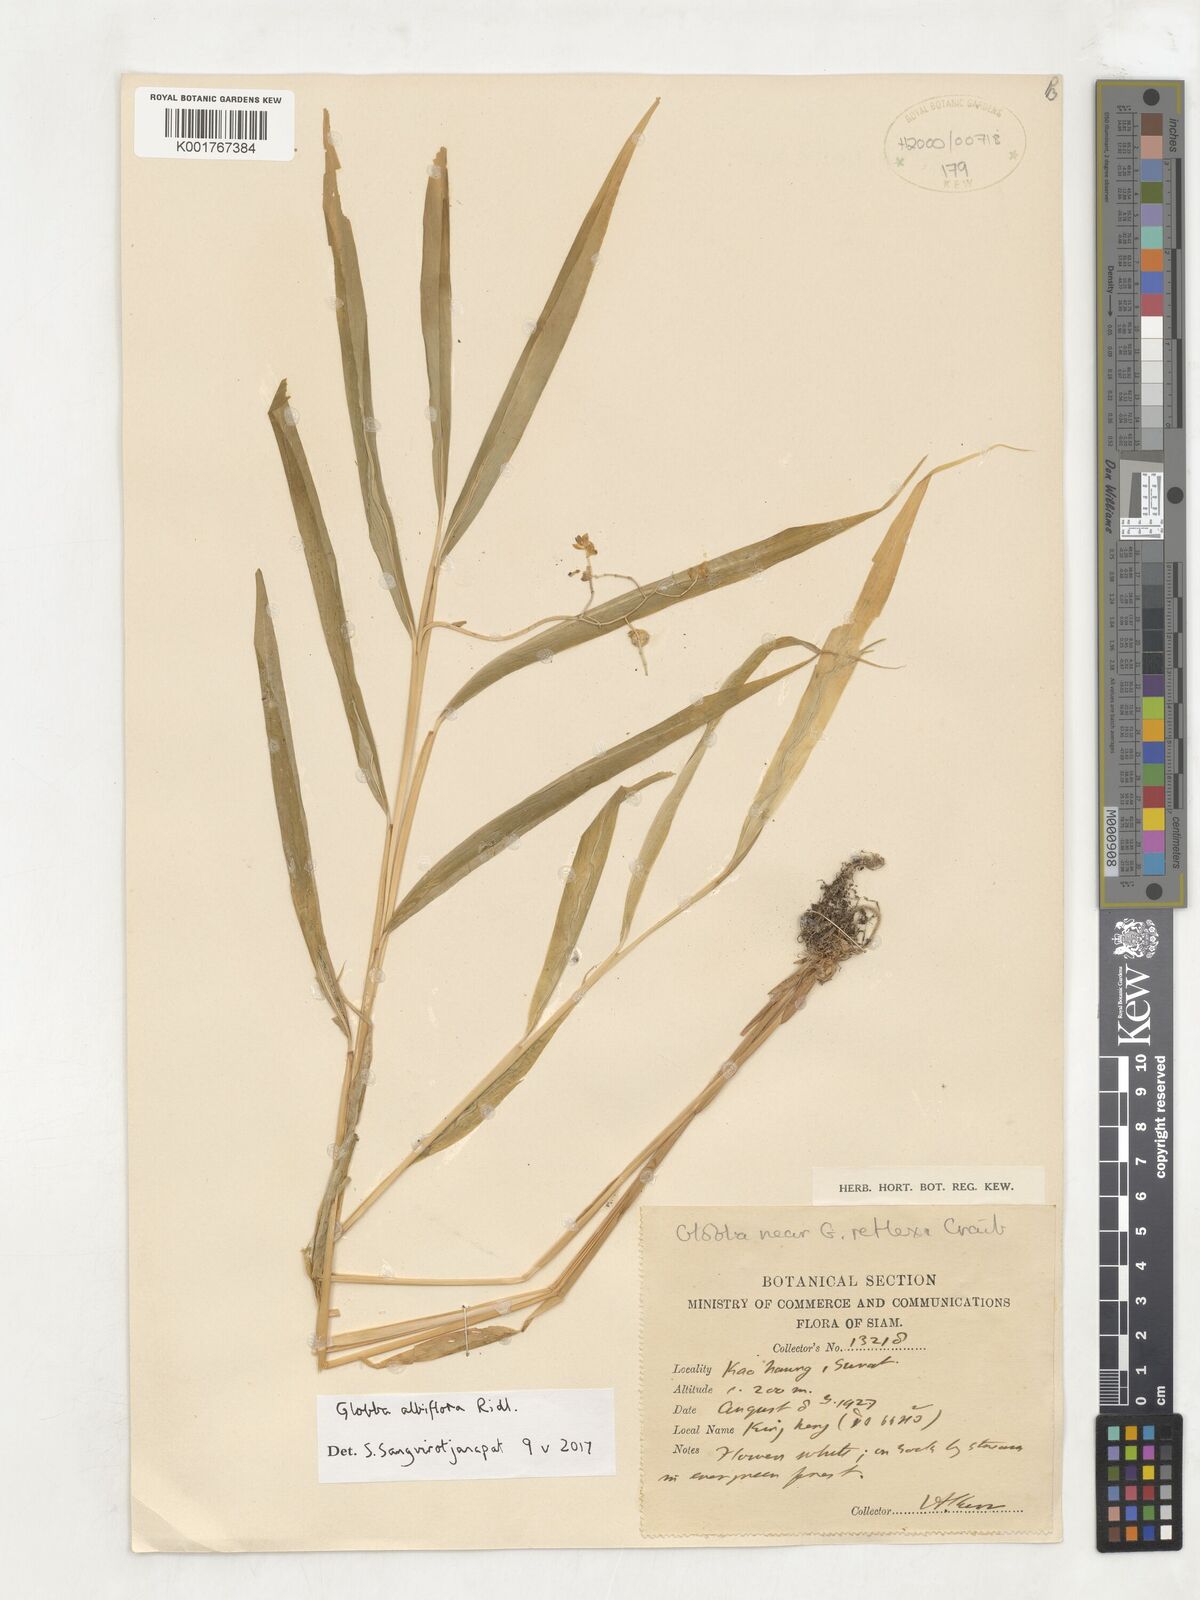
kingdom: Plantae
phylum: Tracheophyta
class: Liliopsida
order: Zingiberales
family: Zingiberaceae
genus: Globba
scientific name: Globba albiflora
